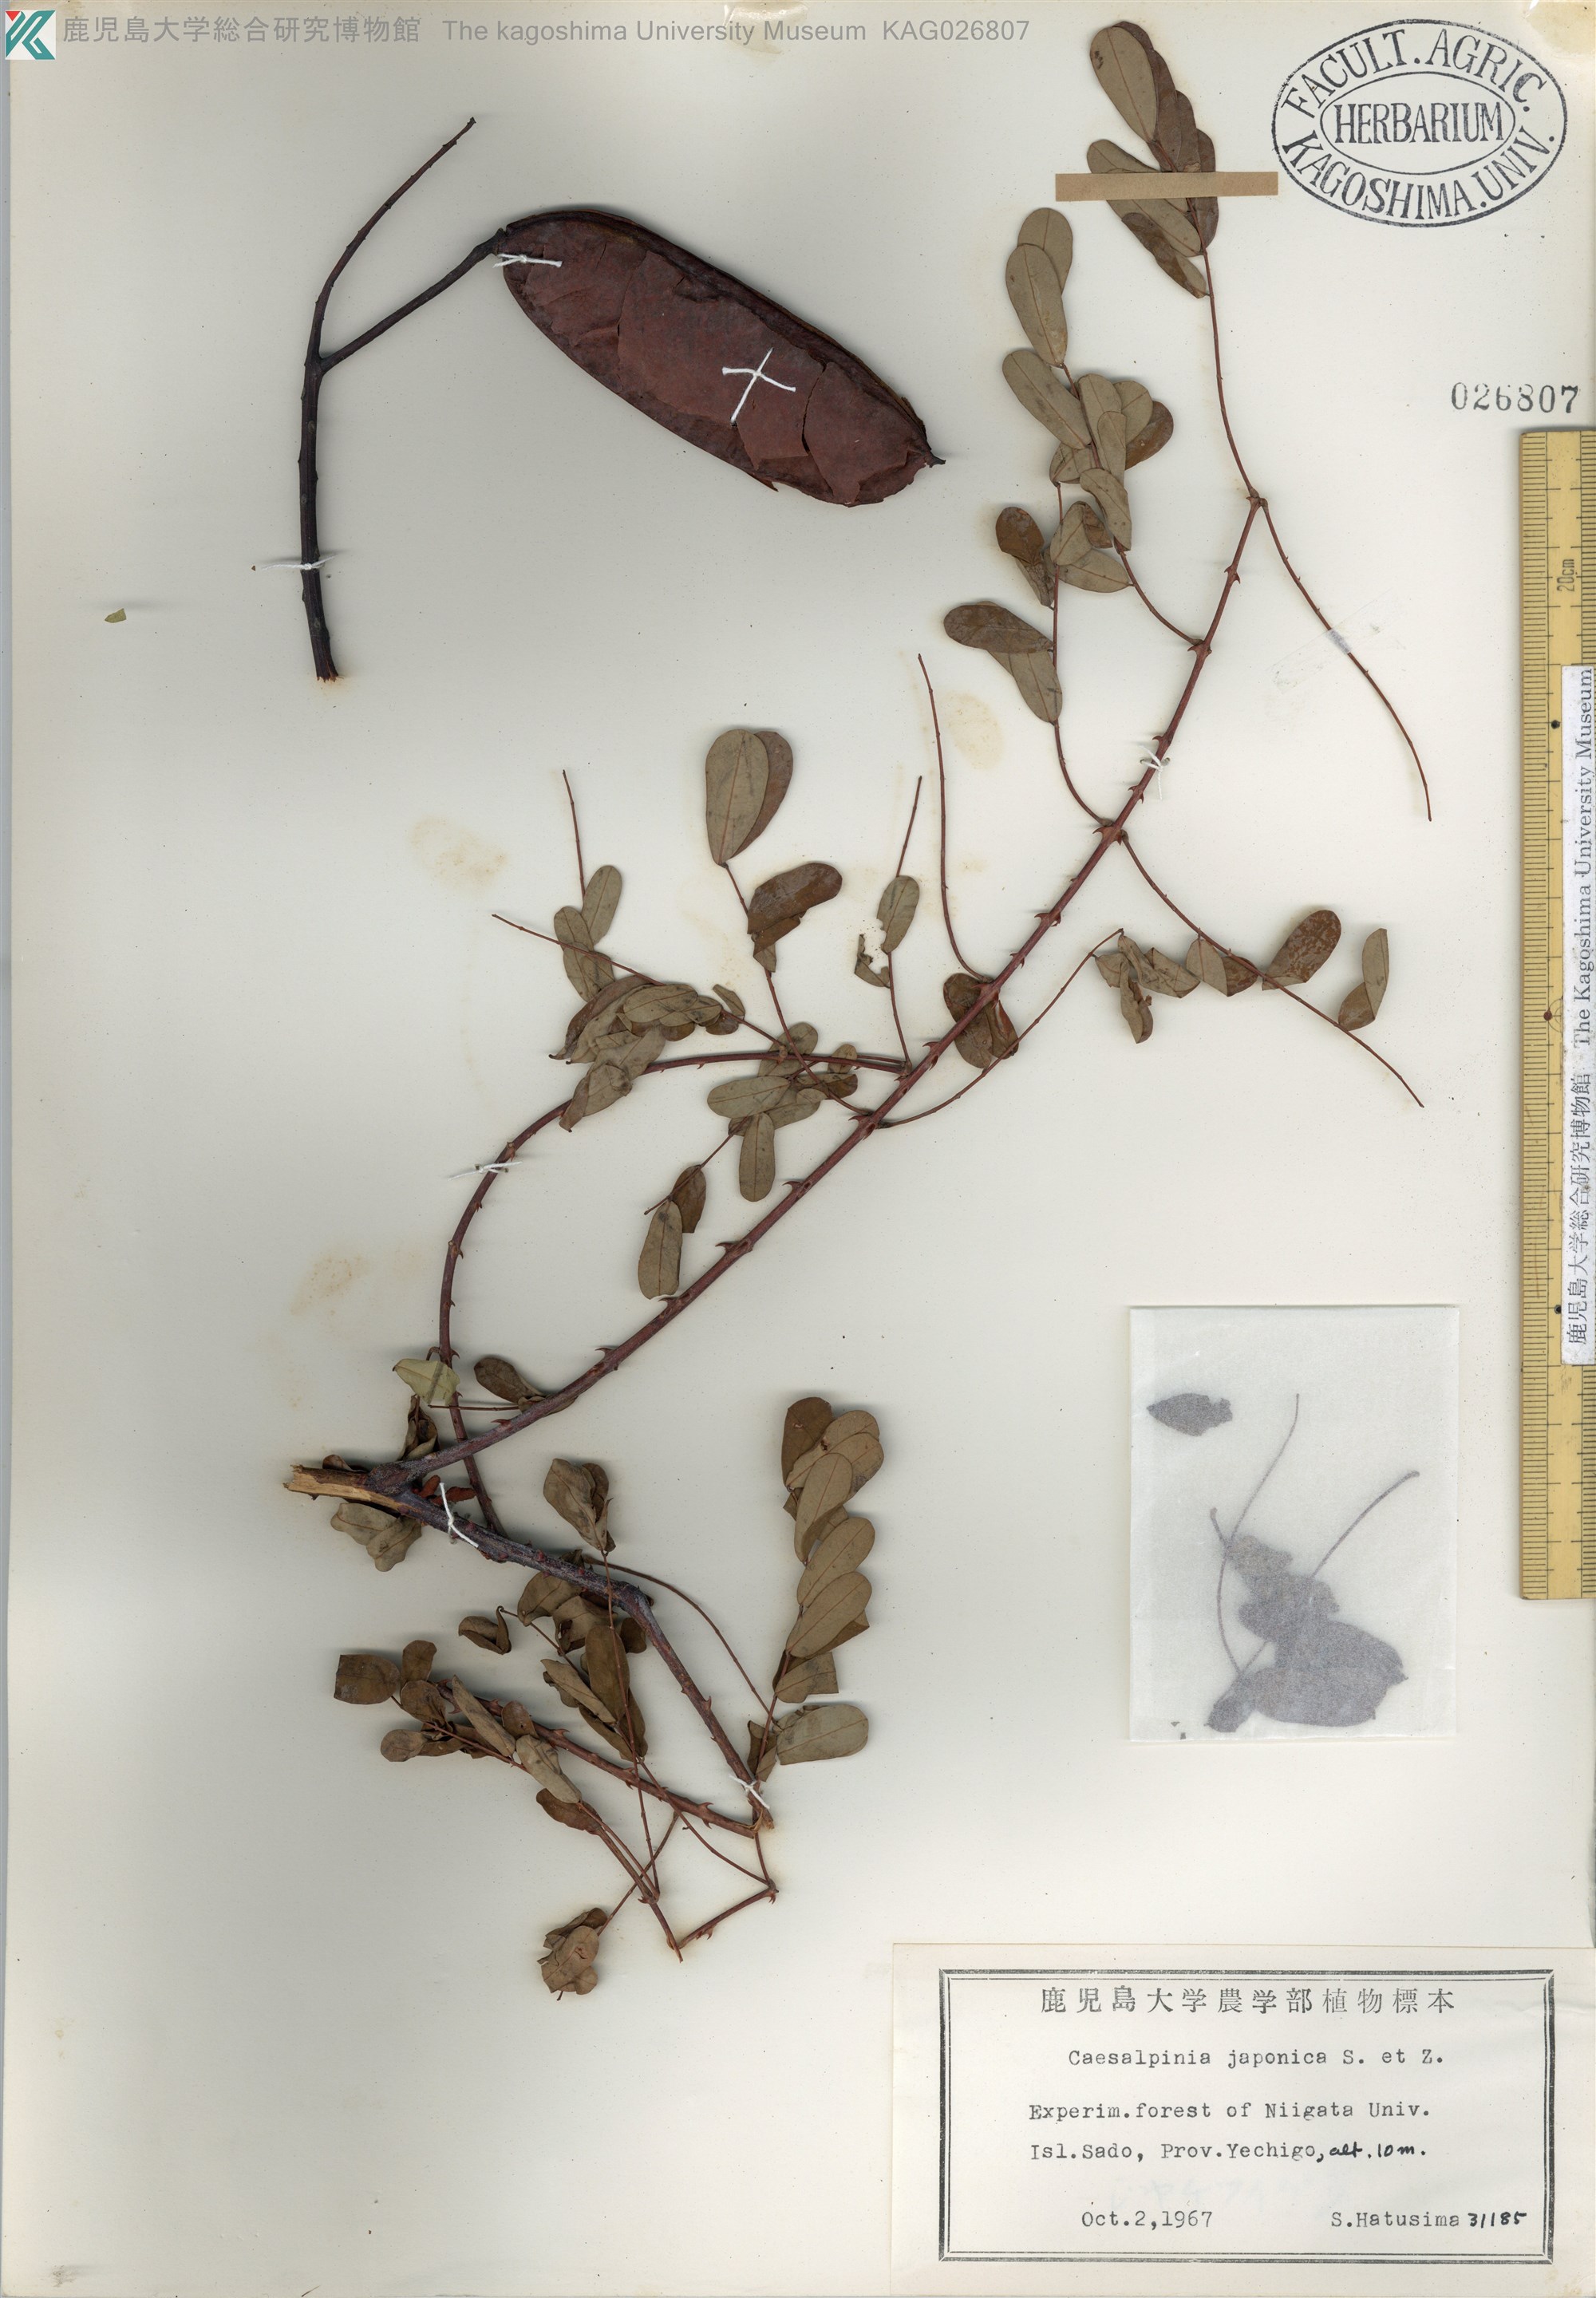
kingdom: Plantae
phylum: Tracheophyta
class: Magnoliopsida
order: Fabales
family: Fabaceae
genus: Biancaea
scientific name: Biancaea decapetala
